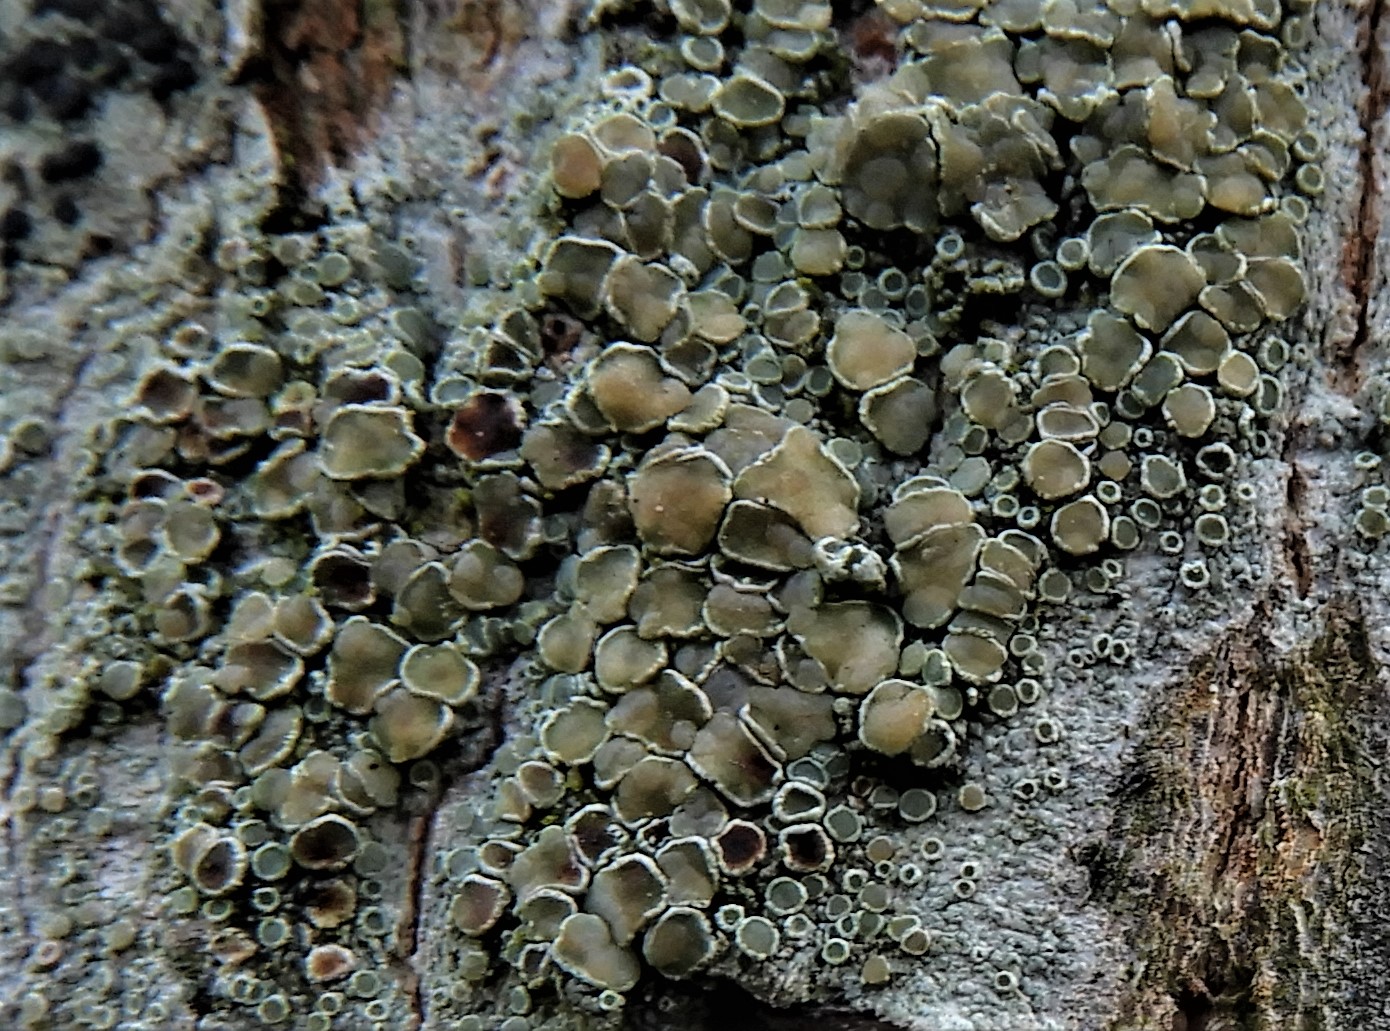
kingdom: Fungi
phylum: Ascomycota
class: Lecanoromycetes
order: Lecanorales
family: Lecanoraceae
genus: Lecanora
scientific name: Lecanora chlarotera
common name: brun kantskivelav
